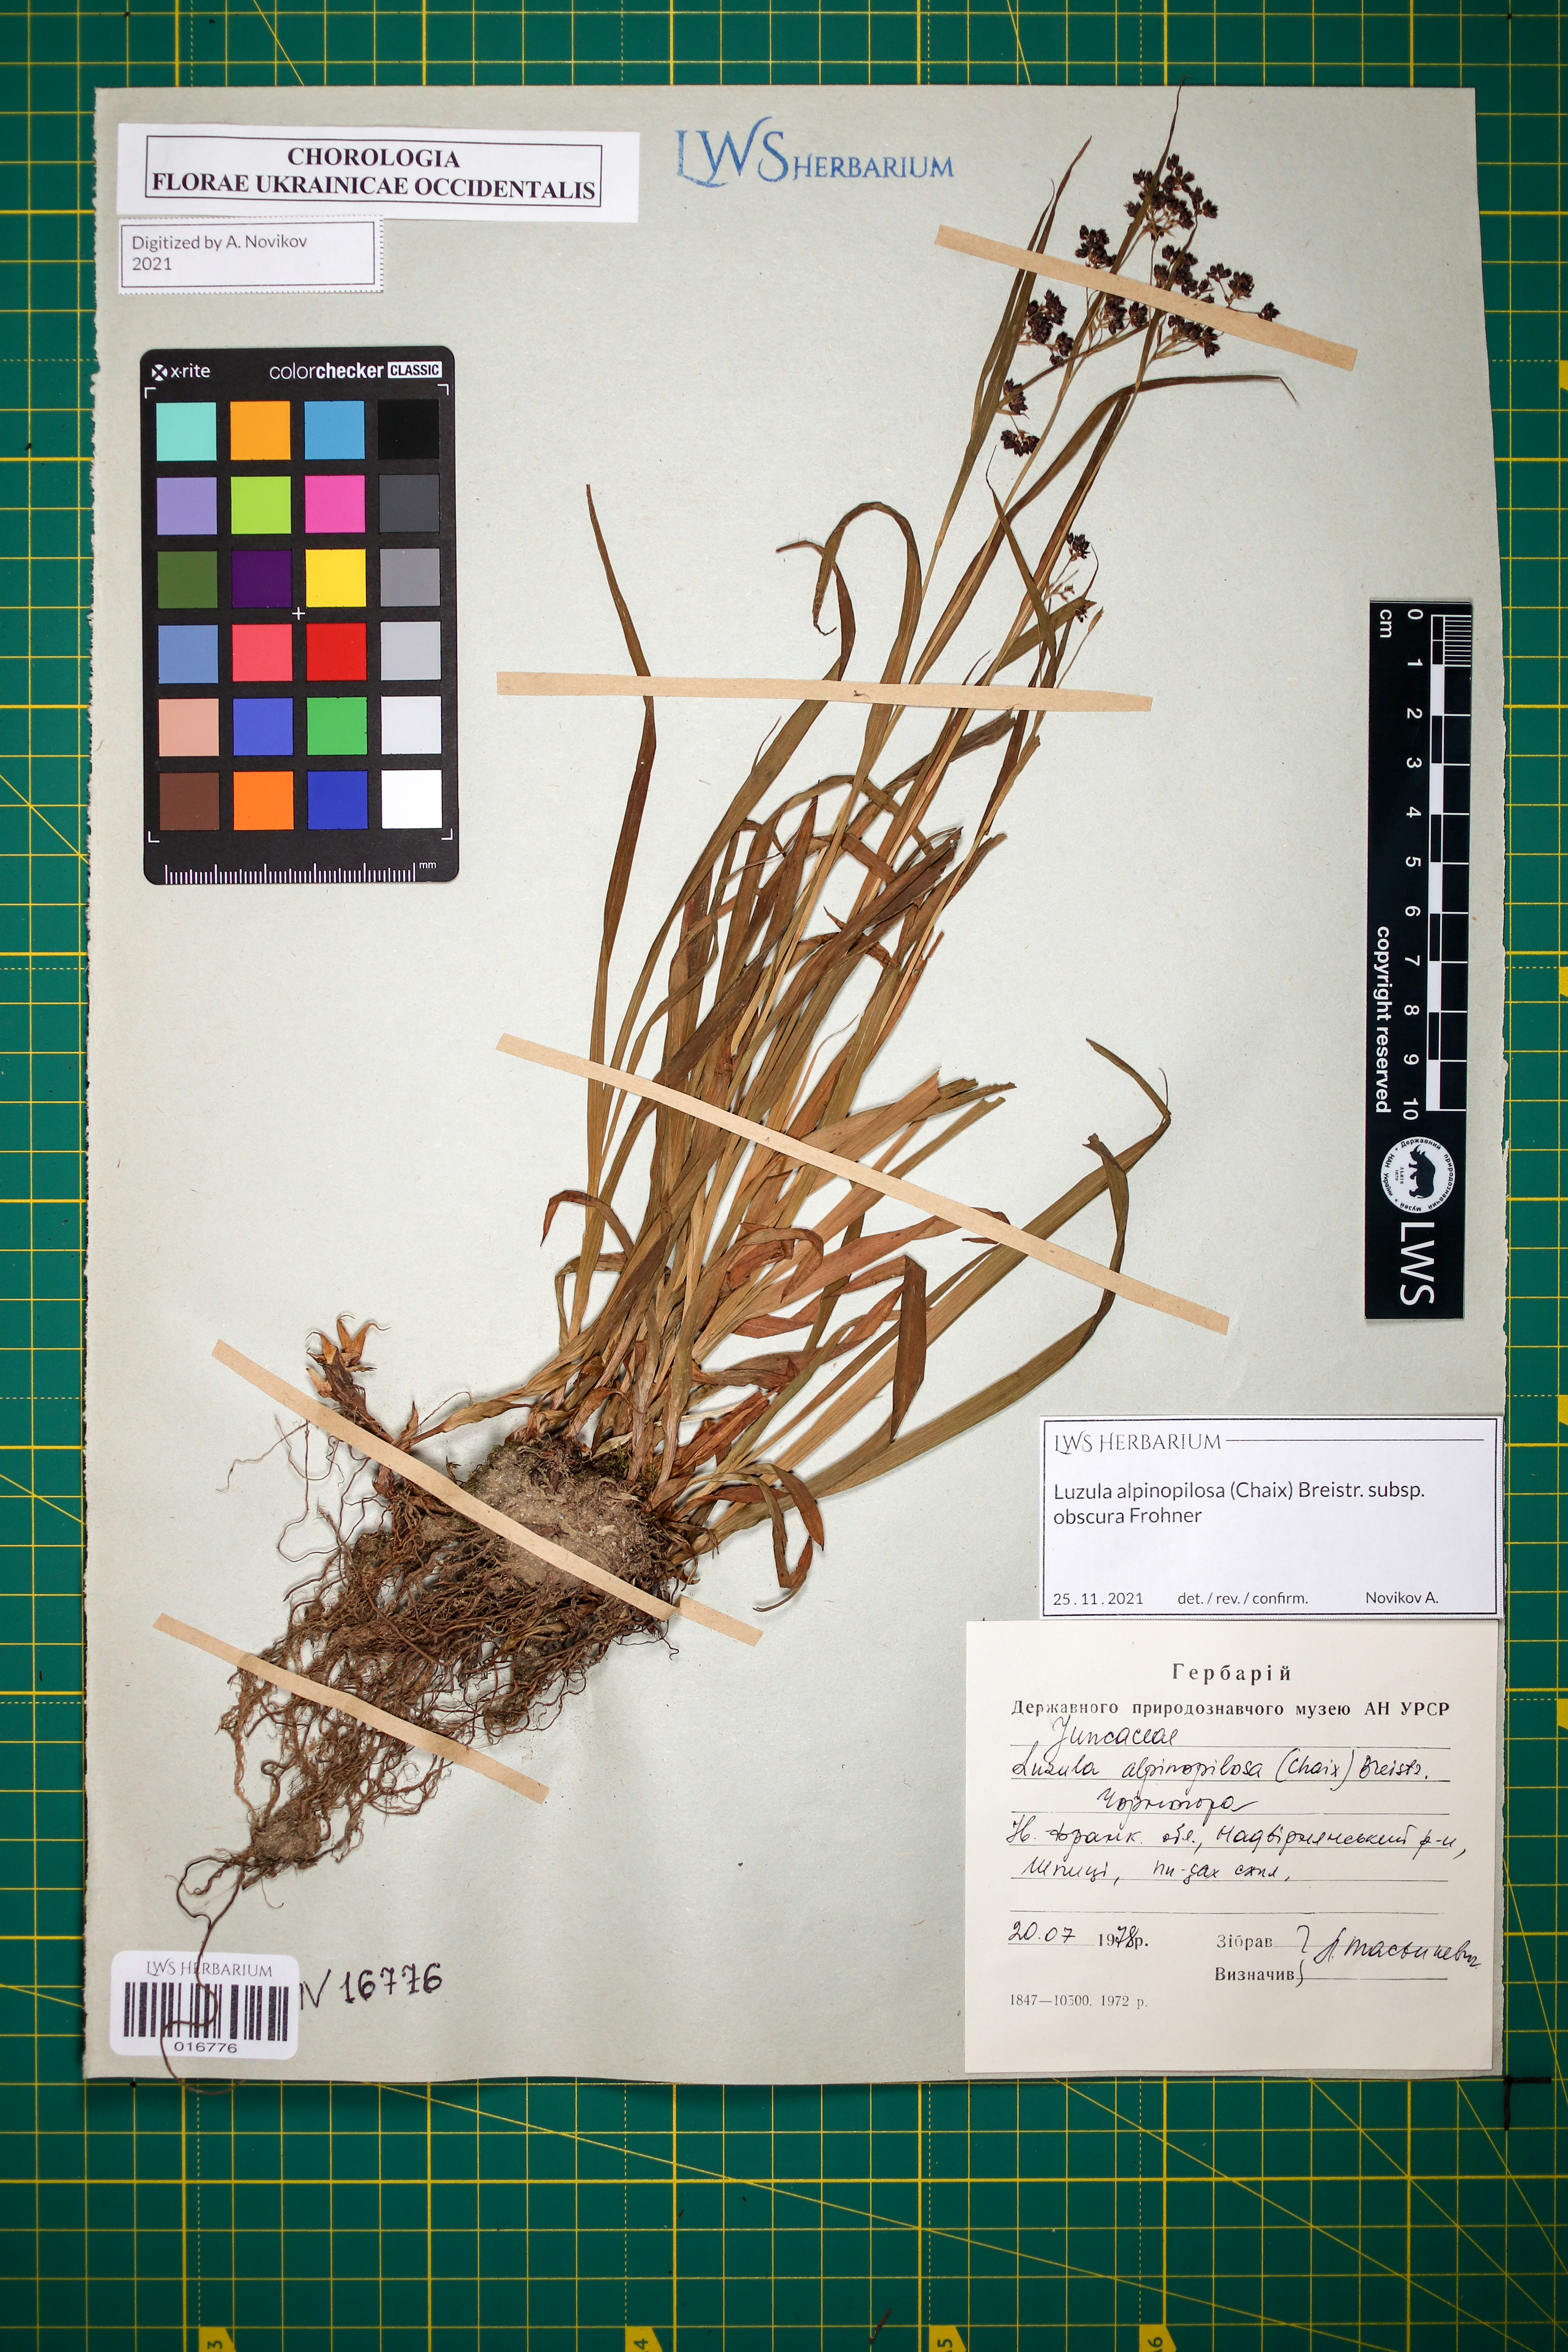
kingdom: Plantae
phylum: Tracheophyta
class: Liliopsida
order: Poales
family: Juncaceae
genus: Luzula
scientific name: Luzula alpinopilosa
